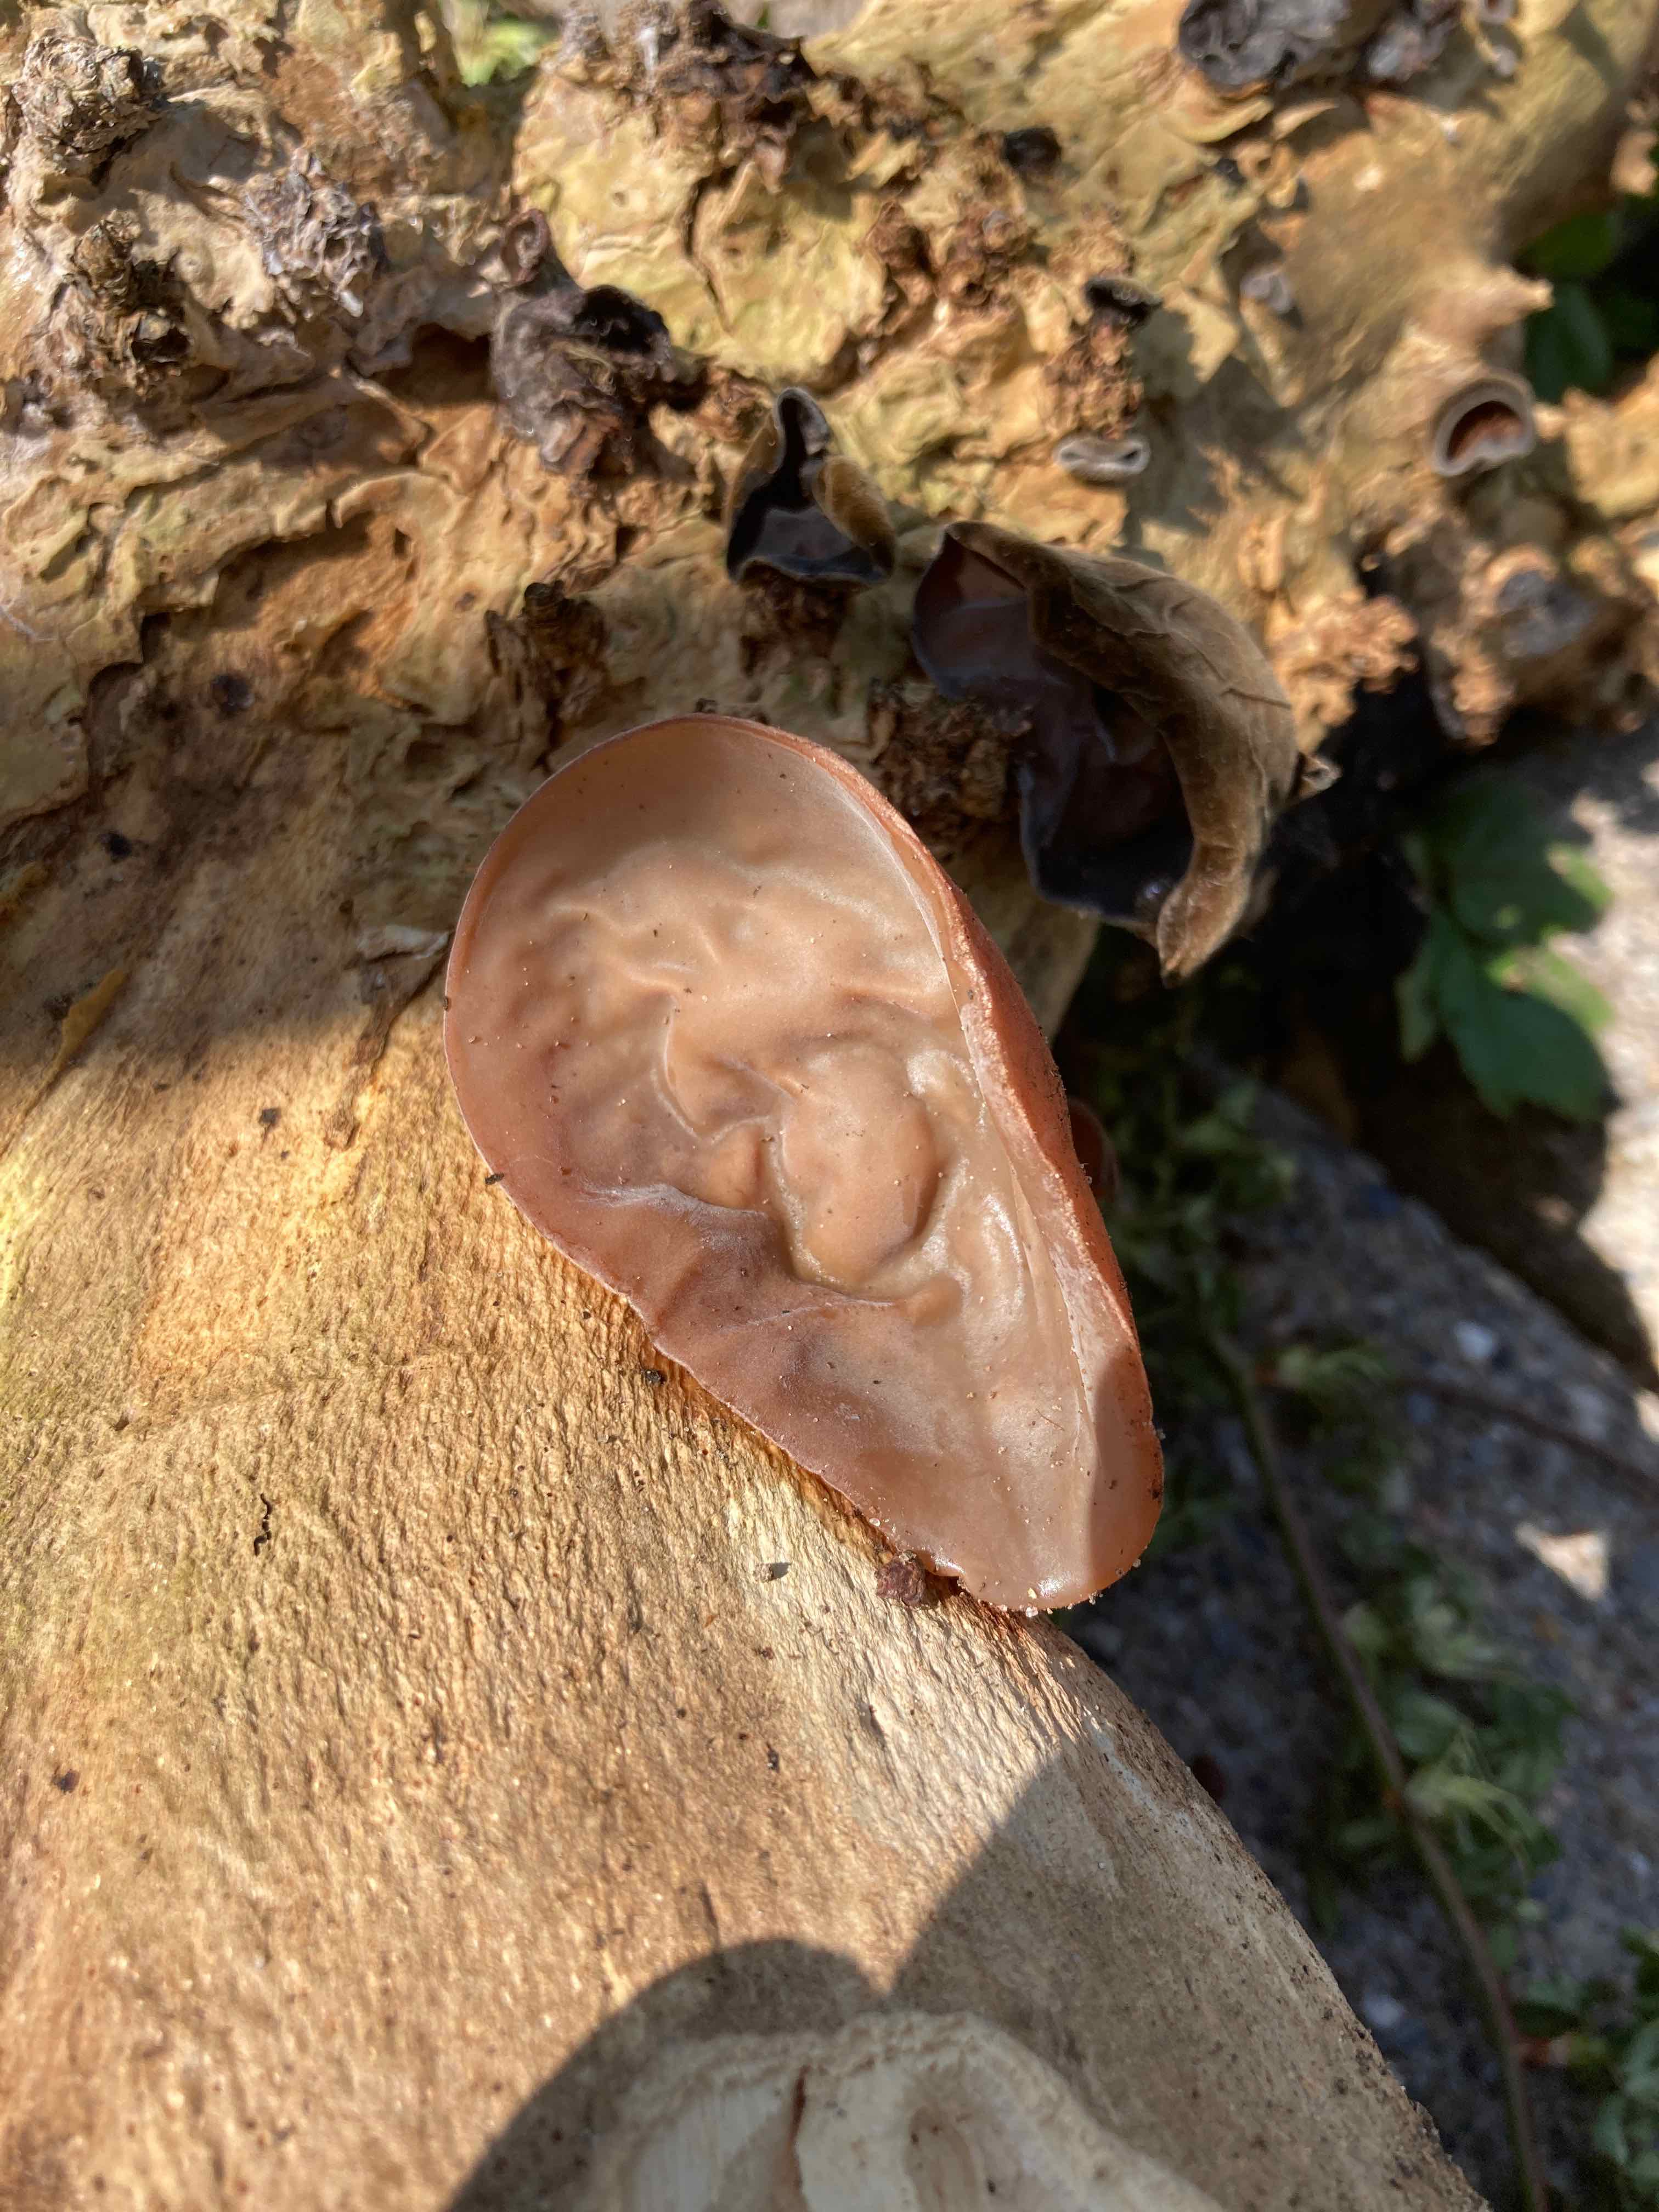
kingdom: Fungi
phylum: Basidiomycota
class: Agaricomycetes
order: Auriculariales
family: Auriculariaceae
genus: Auricularia
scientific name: Auricularia auricula-judae
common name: almindelig judasøre
